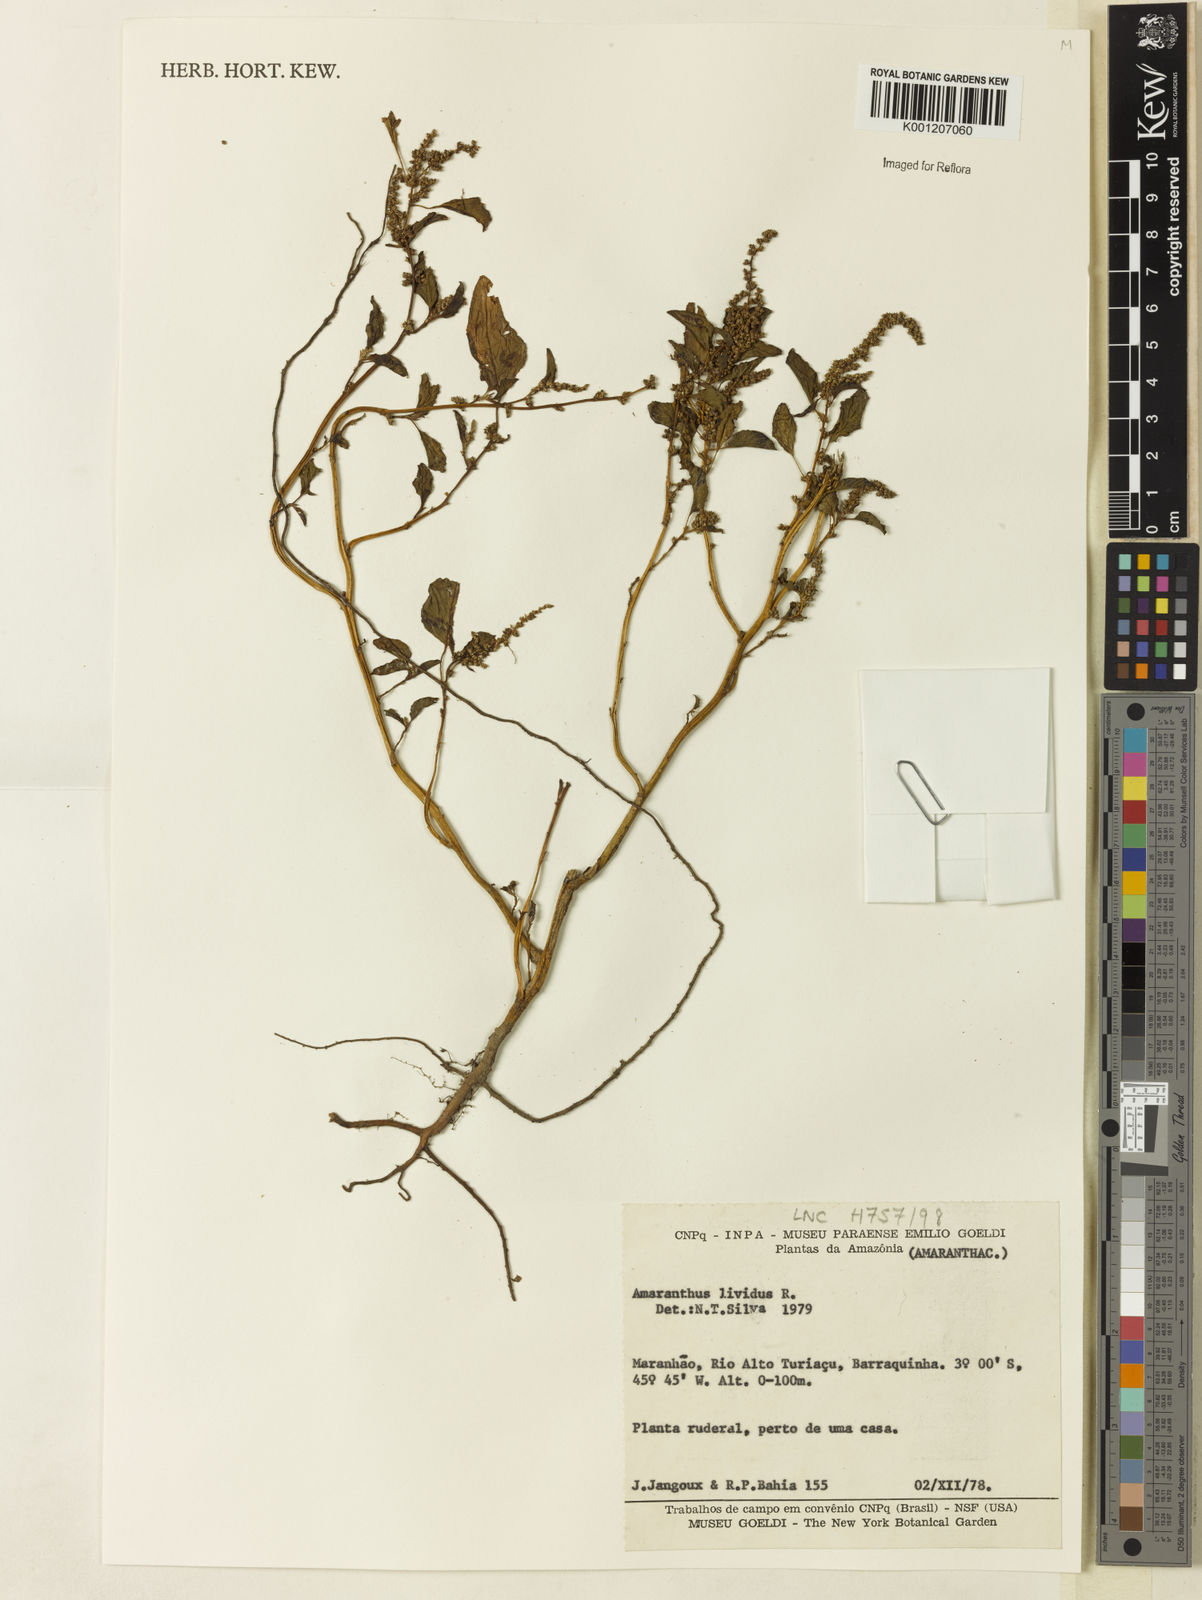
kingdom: Plantae
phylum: Tracheophyta
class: Magnoliopsida
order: Caryophyllales
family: Amaranthaceae
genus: Amaranthus
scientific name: Amaranthus blitum
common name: Purple amaranth
